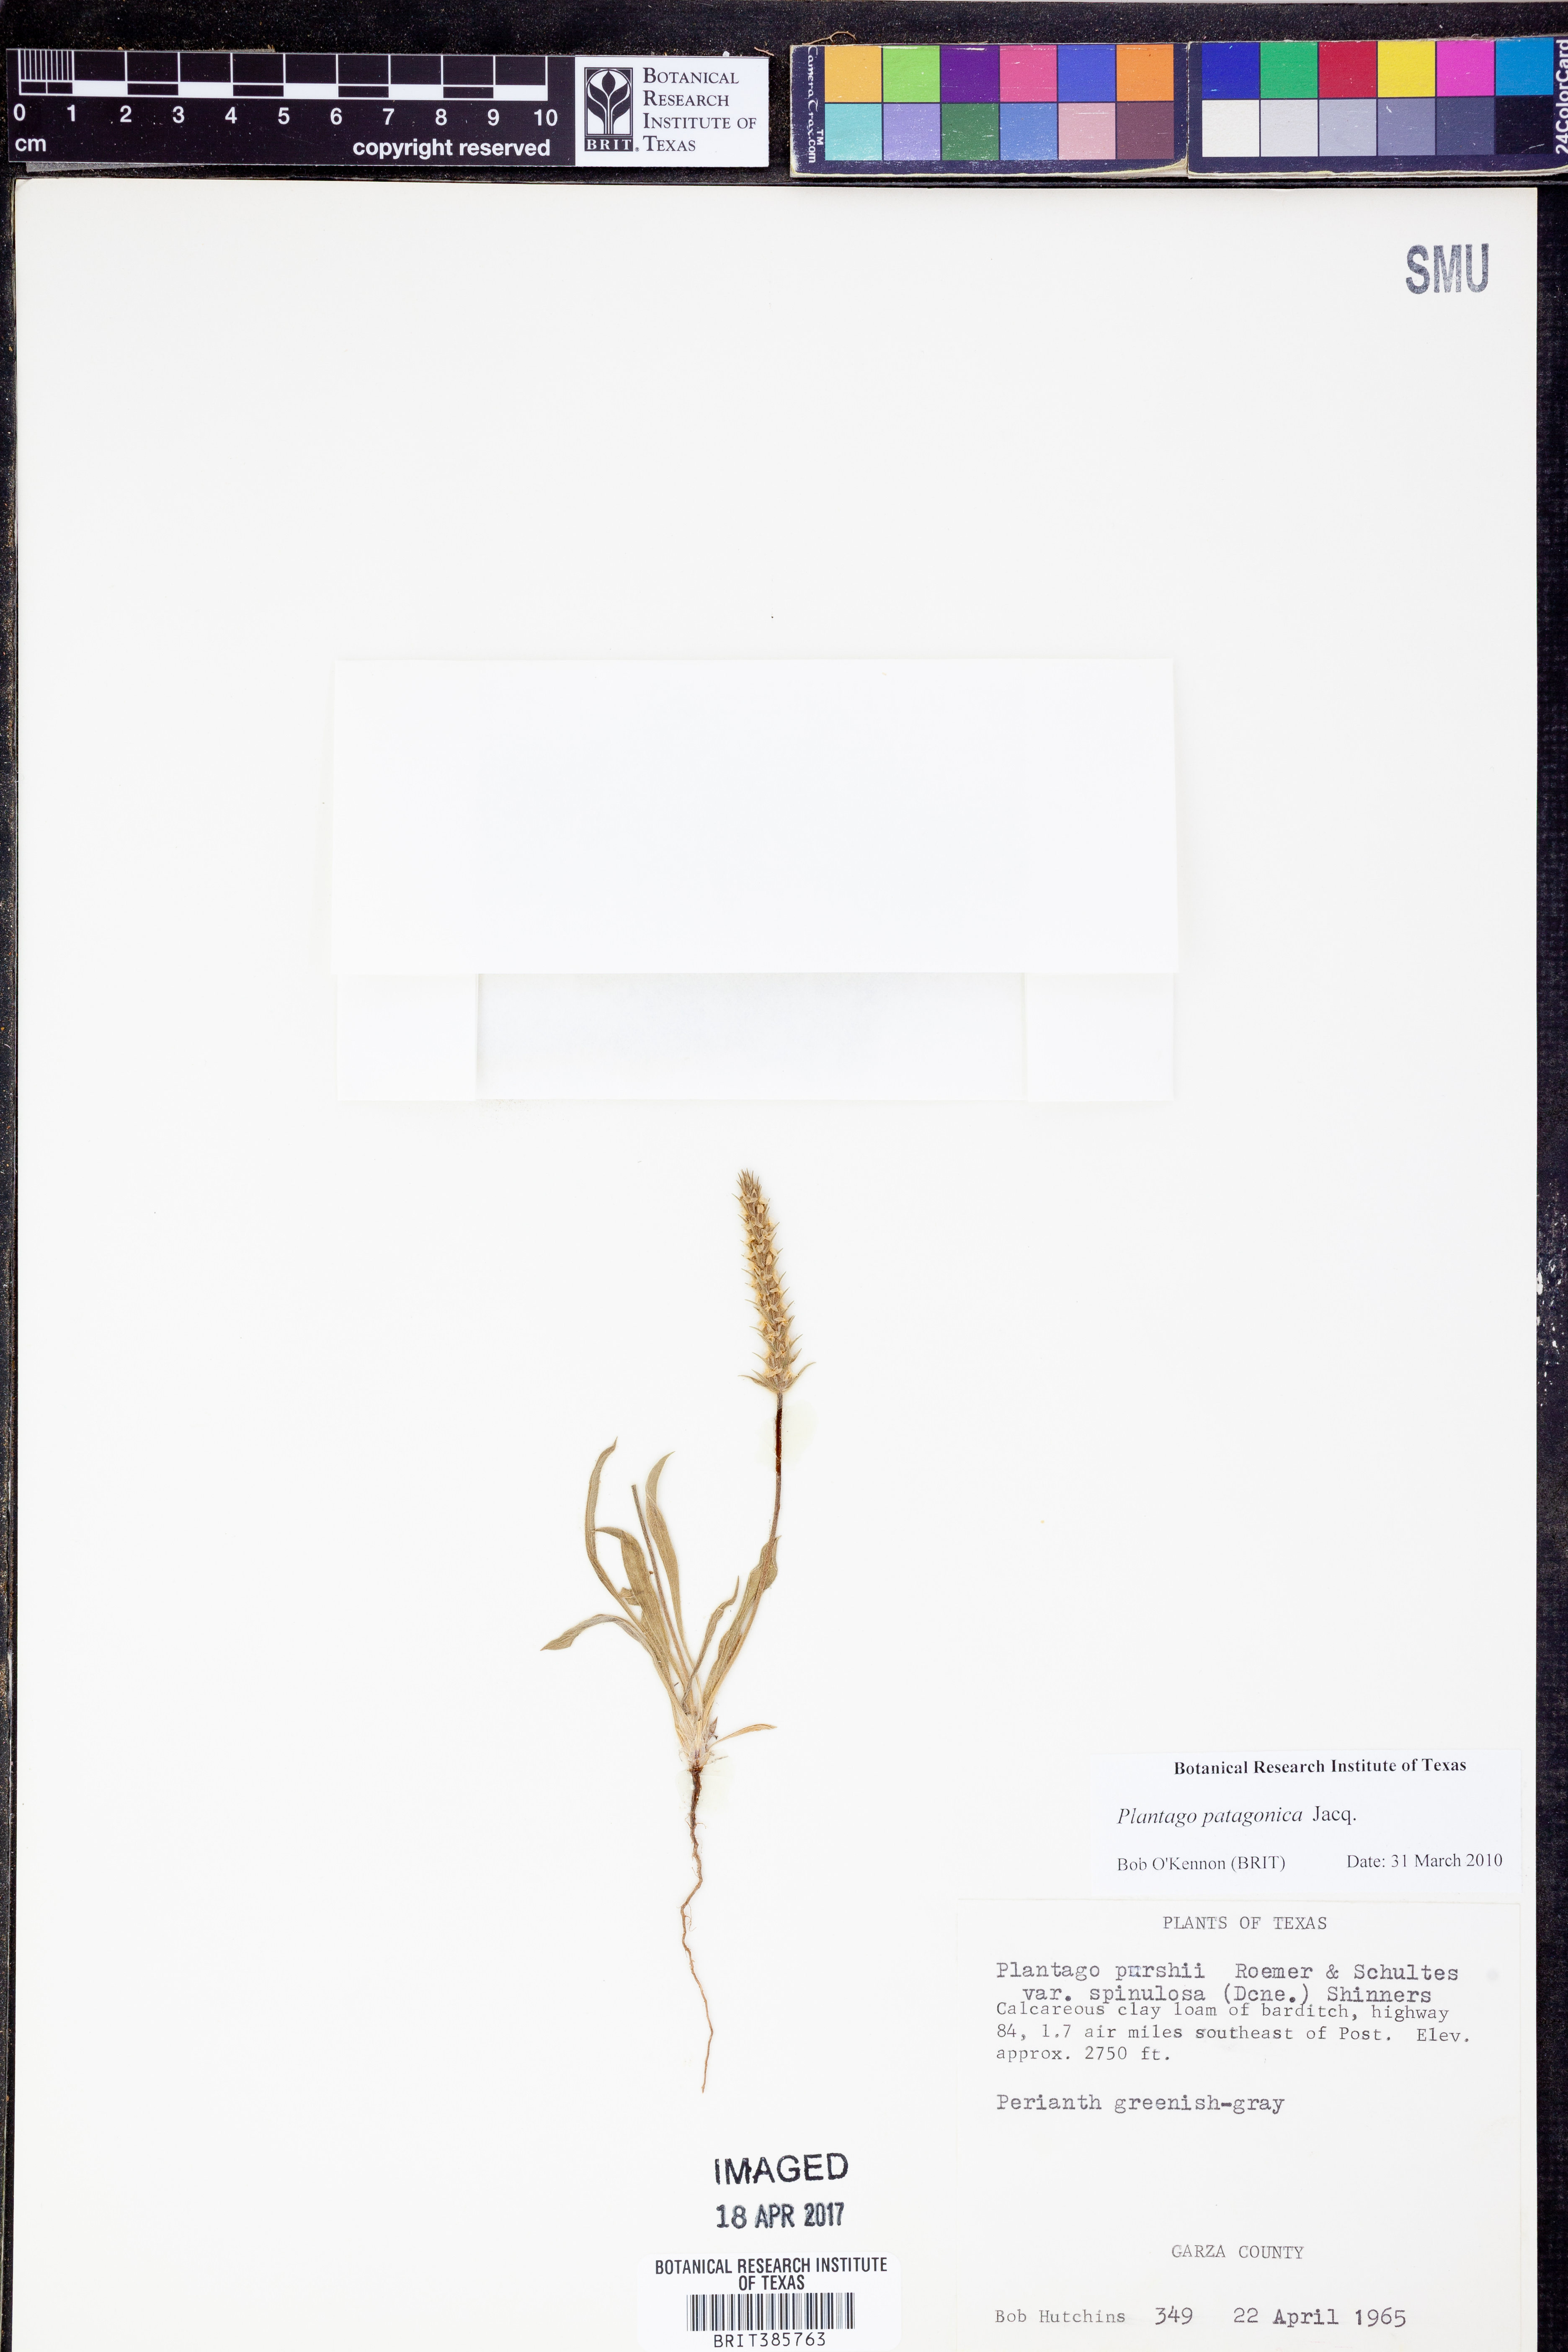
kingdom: Plantae
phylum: Tracheophyta
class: Magnoliopsida
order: Lamiales
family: Plantaginaceae
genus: Plantago
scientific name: Plantago patagonica
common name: Patagonia indian-wheat
